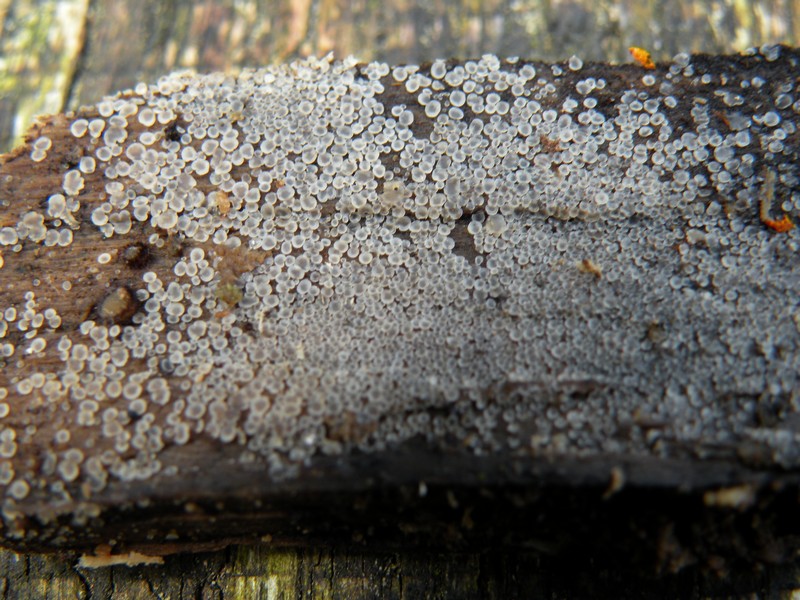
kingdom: Fungi
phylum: Ascomycota
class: Orbiliomycetes
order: Orbiliales
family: Orbiliaceae
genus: Orbilia
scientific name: Orbilia epipora
